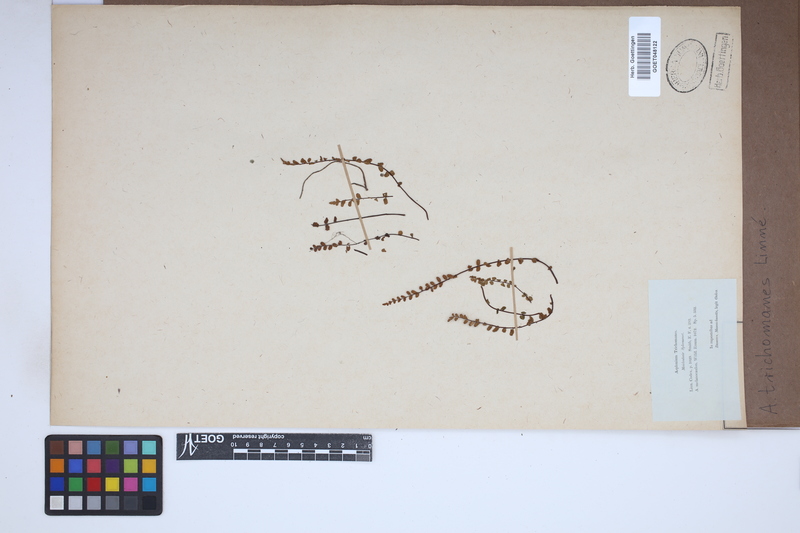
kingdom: Plantae
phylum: Tracheophyta
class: Polypodiopsida
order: Polypodiales
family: Aspleniaceae
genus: Asplenium
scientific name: Asplenium trichomanes
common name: Maidenhair spleenwort
